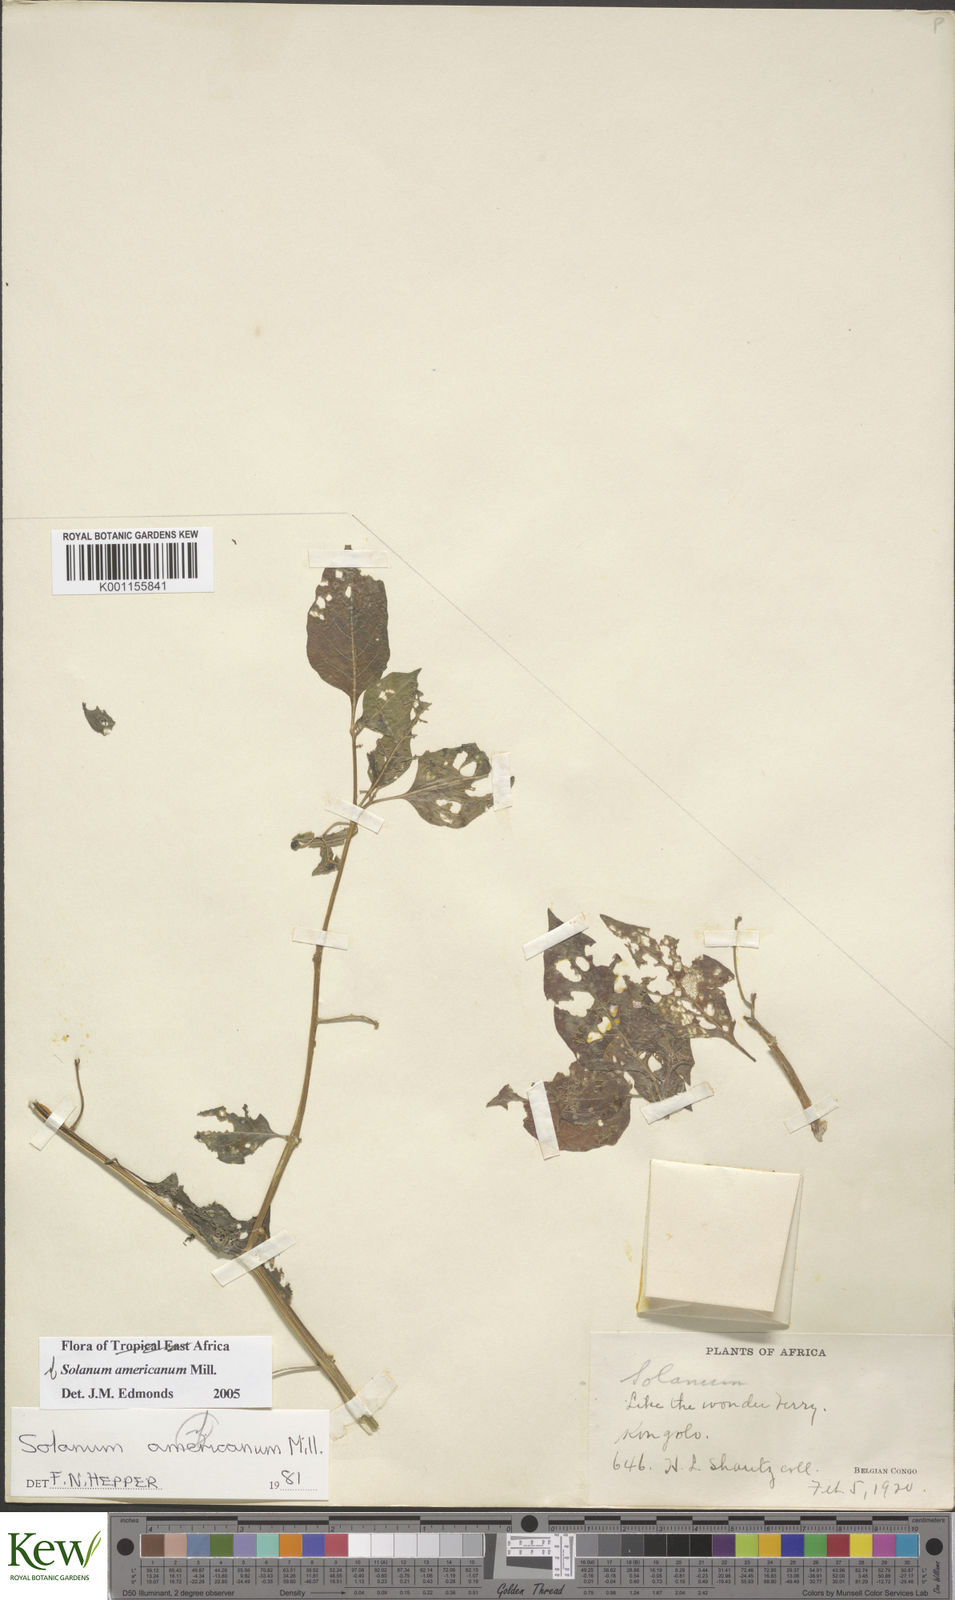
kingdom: Plantae
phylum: Tracheophyta
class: Magnoliopsida
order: Solanales
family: Solanaceae
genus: Solanum
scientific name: Solanum scabrum
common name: Garden-huckleberry
